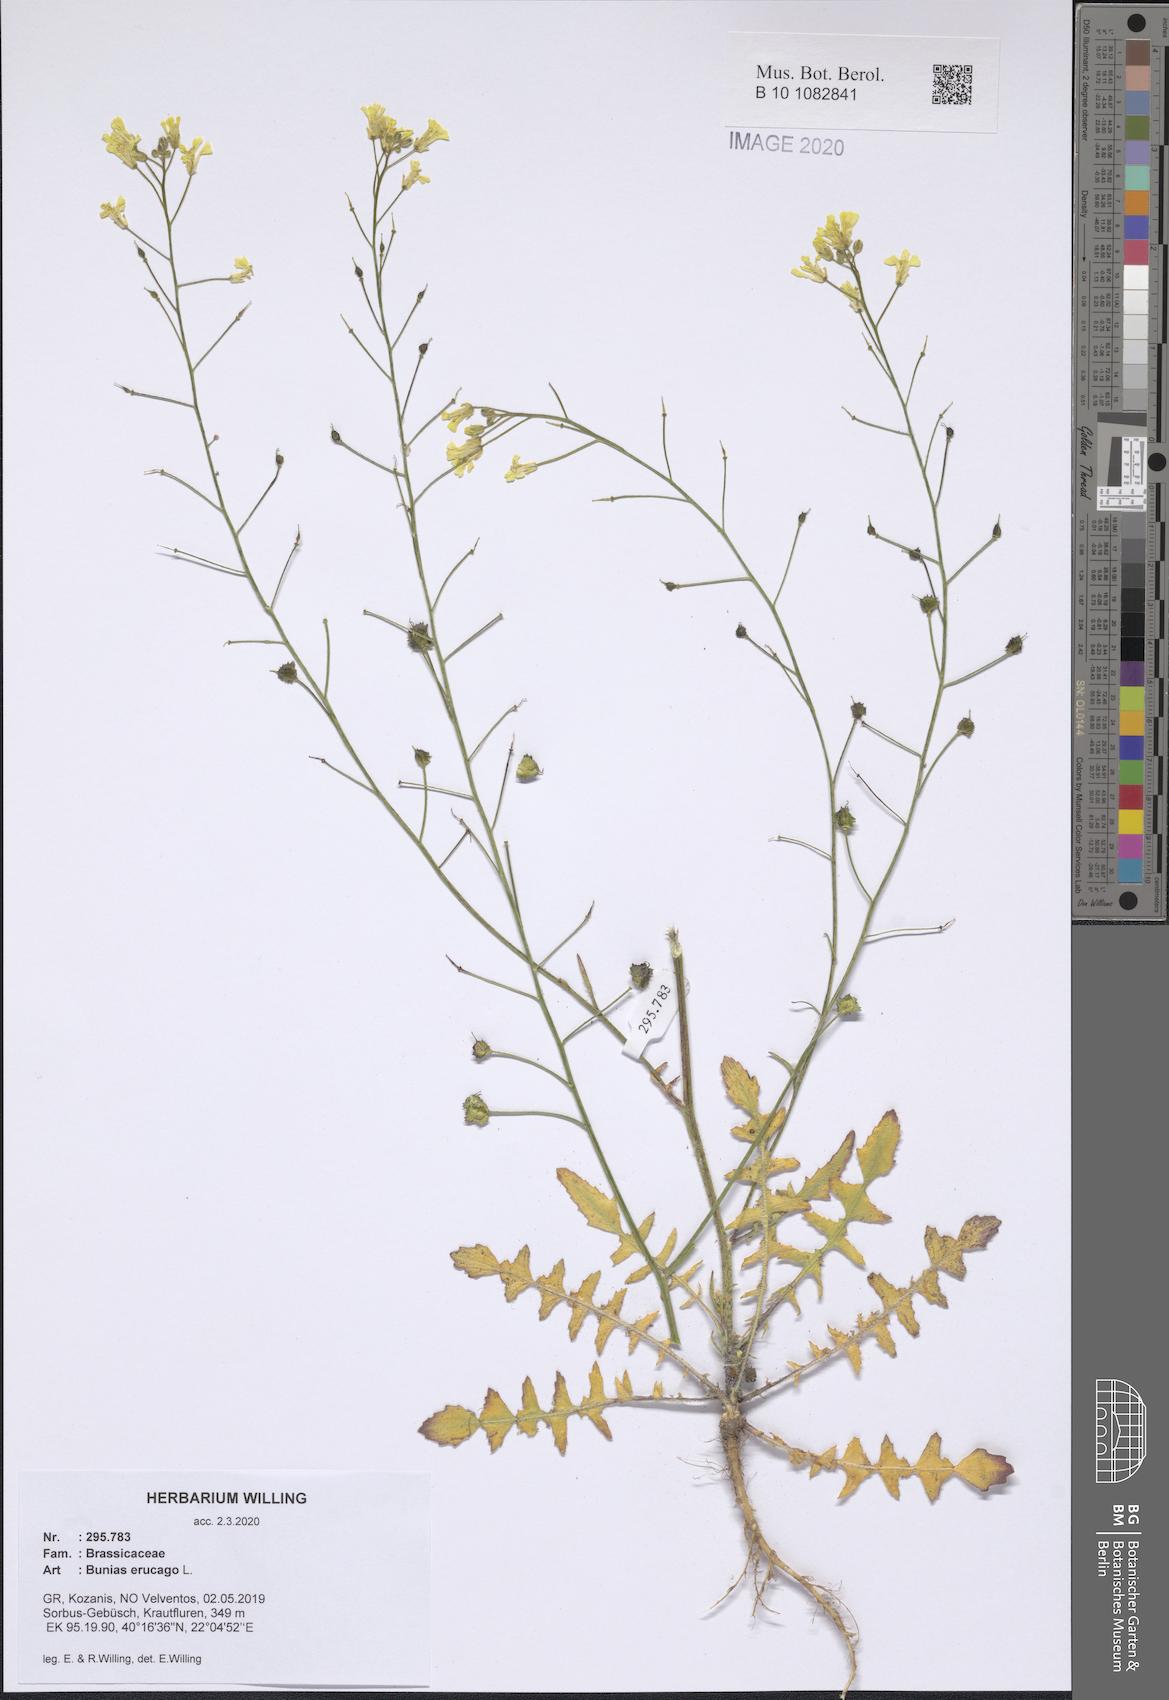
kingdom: Plantae
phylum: Tracheophyta
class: Magnoliopsida
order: Brassicales
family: Brassicaceae
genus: Bunias
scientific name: Bunias erucago
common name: Southern warty-cabbage
